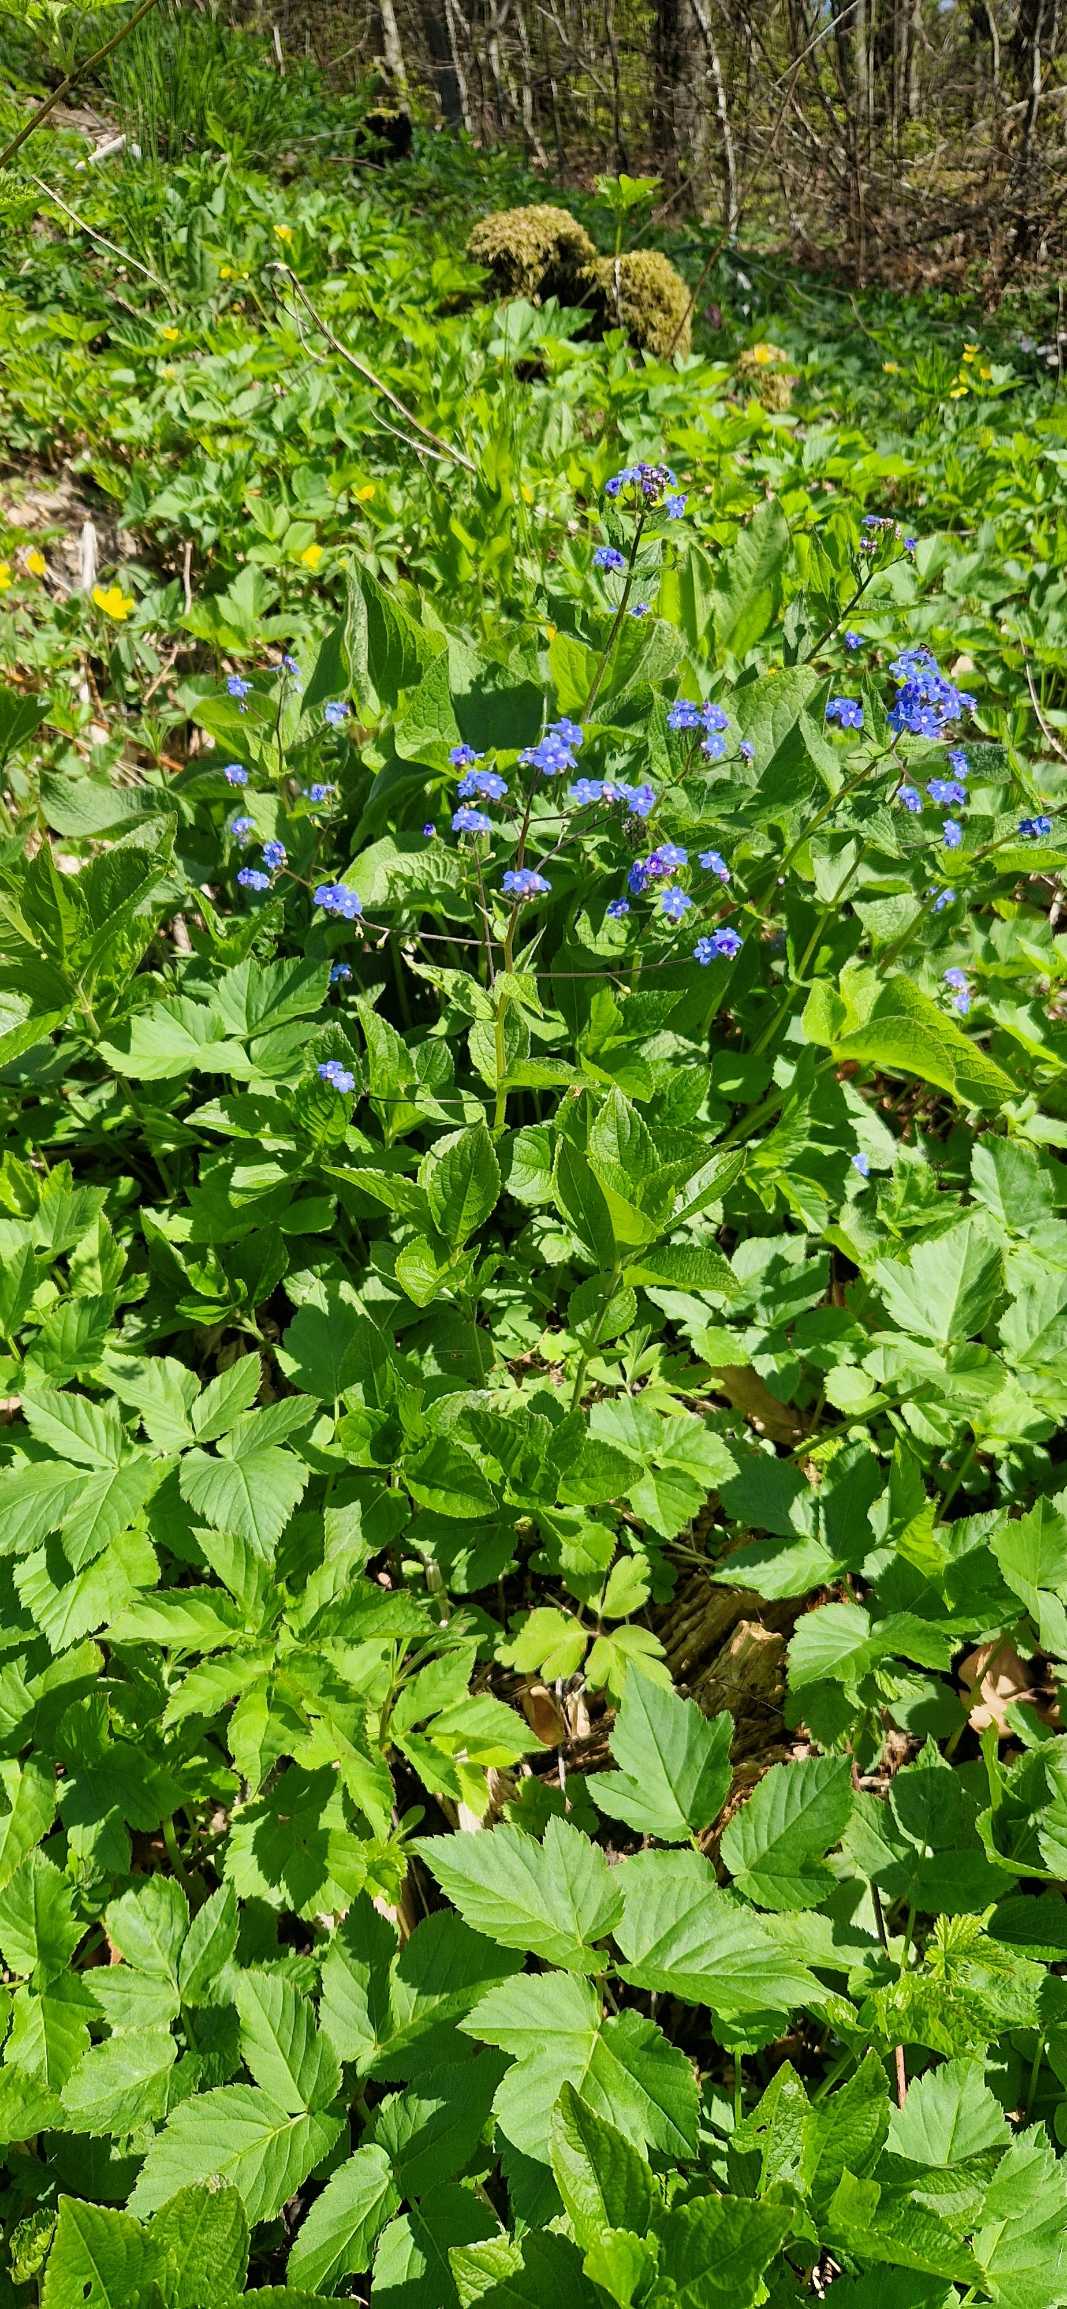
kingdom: Plantae
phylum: Tracheophyta
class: Magnoliopsida
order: Boraginales
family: Boraginaceae
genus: Brunnera
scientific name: Brunnera macrophylla
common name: Kærmindesøster
